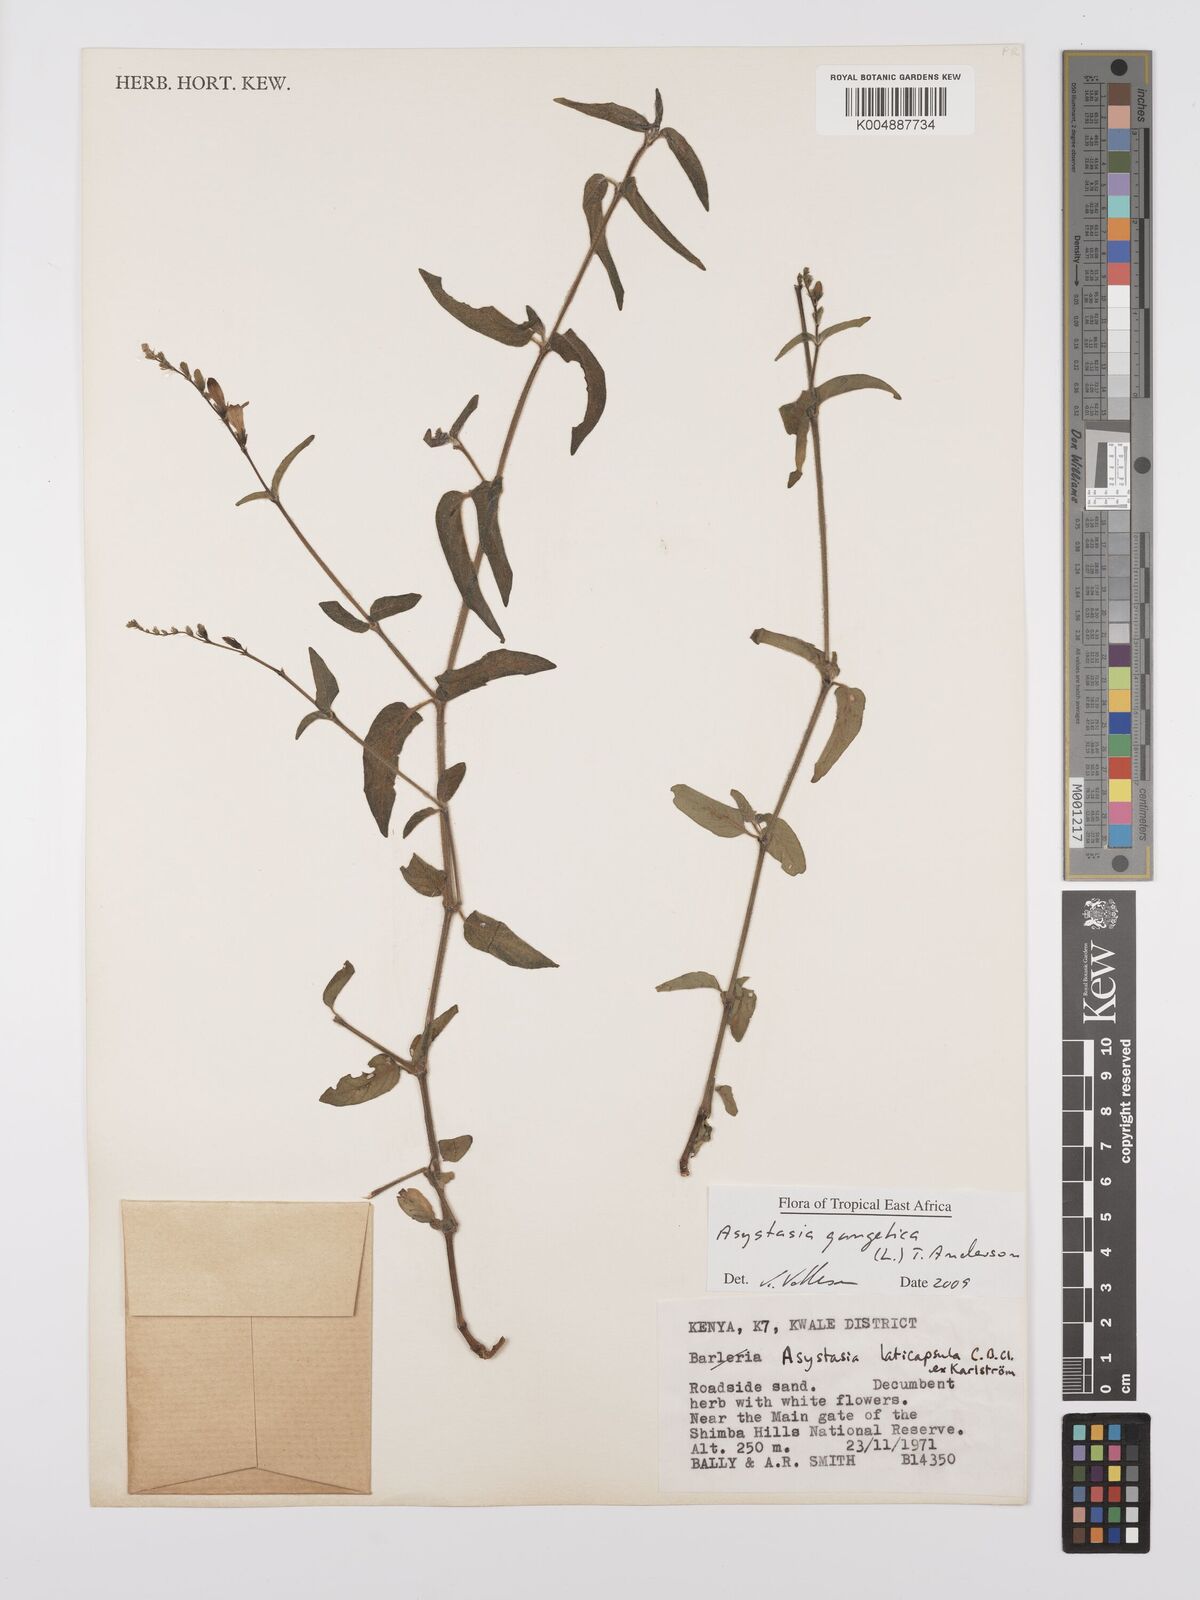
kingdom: Plantae
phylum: Tracheophyta
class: Magnoliopsida
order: Lamiales
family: Acanthaceae
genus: Asystasia
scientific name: Asystasia gangetica
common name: Chinese violet
